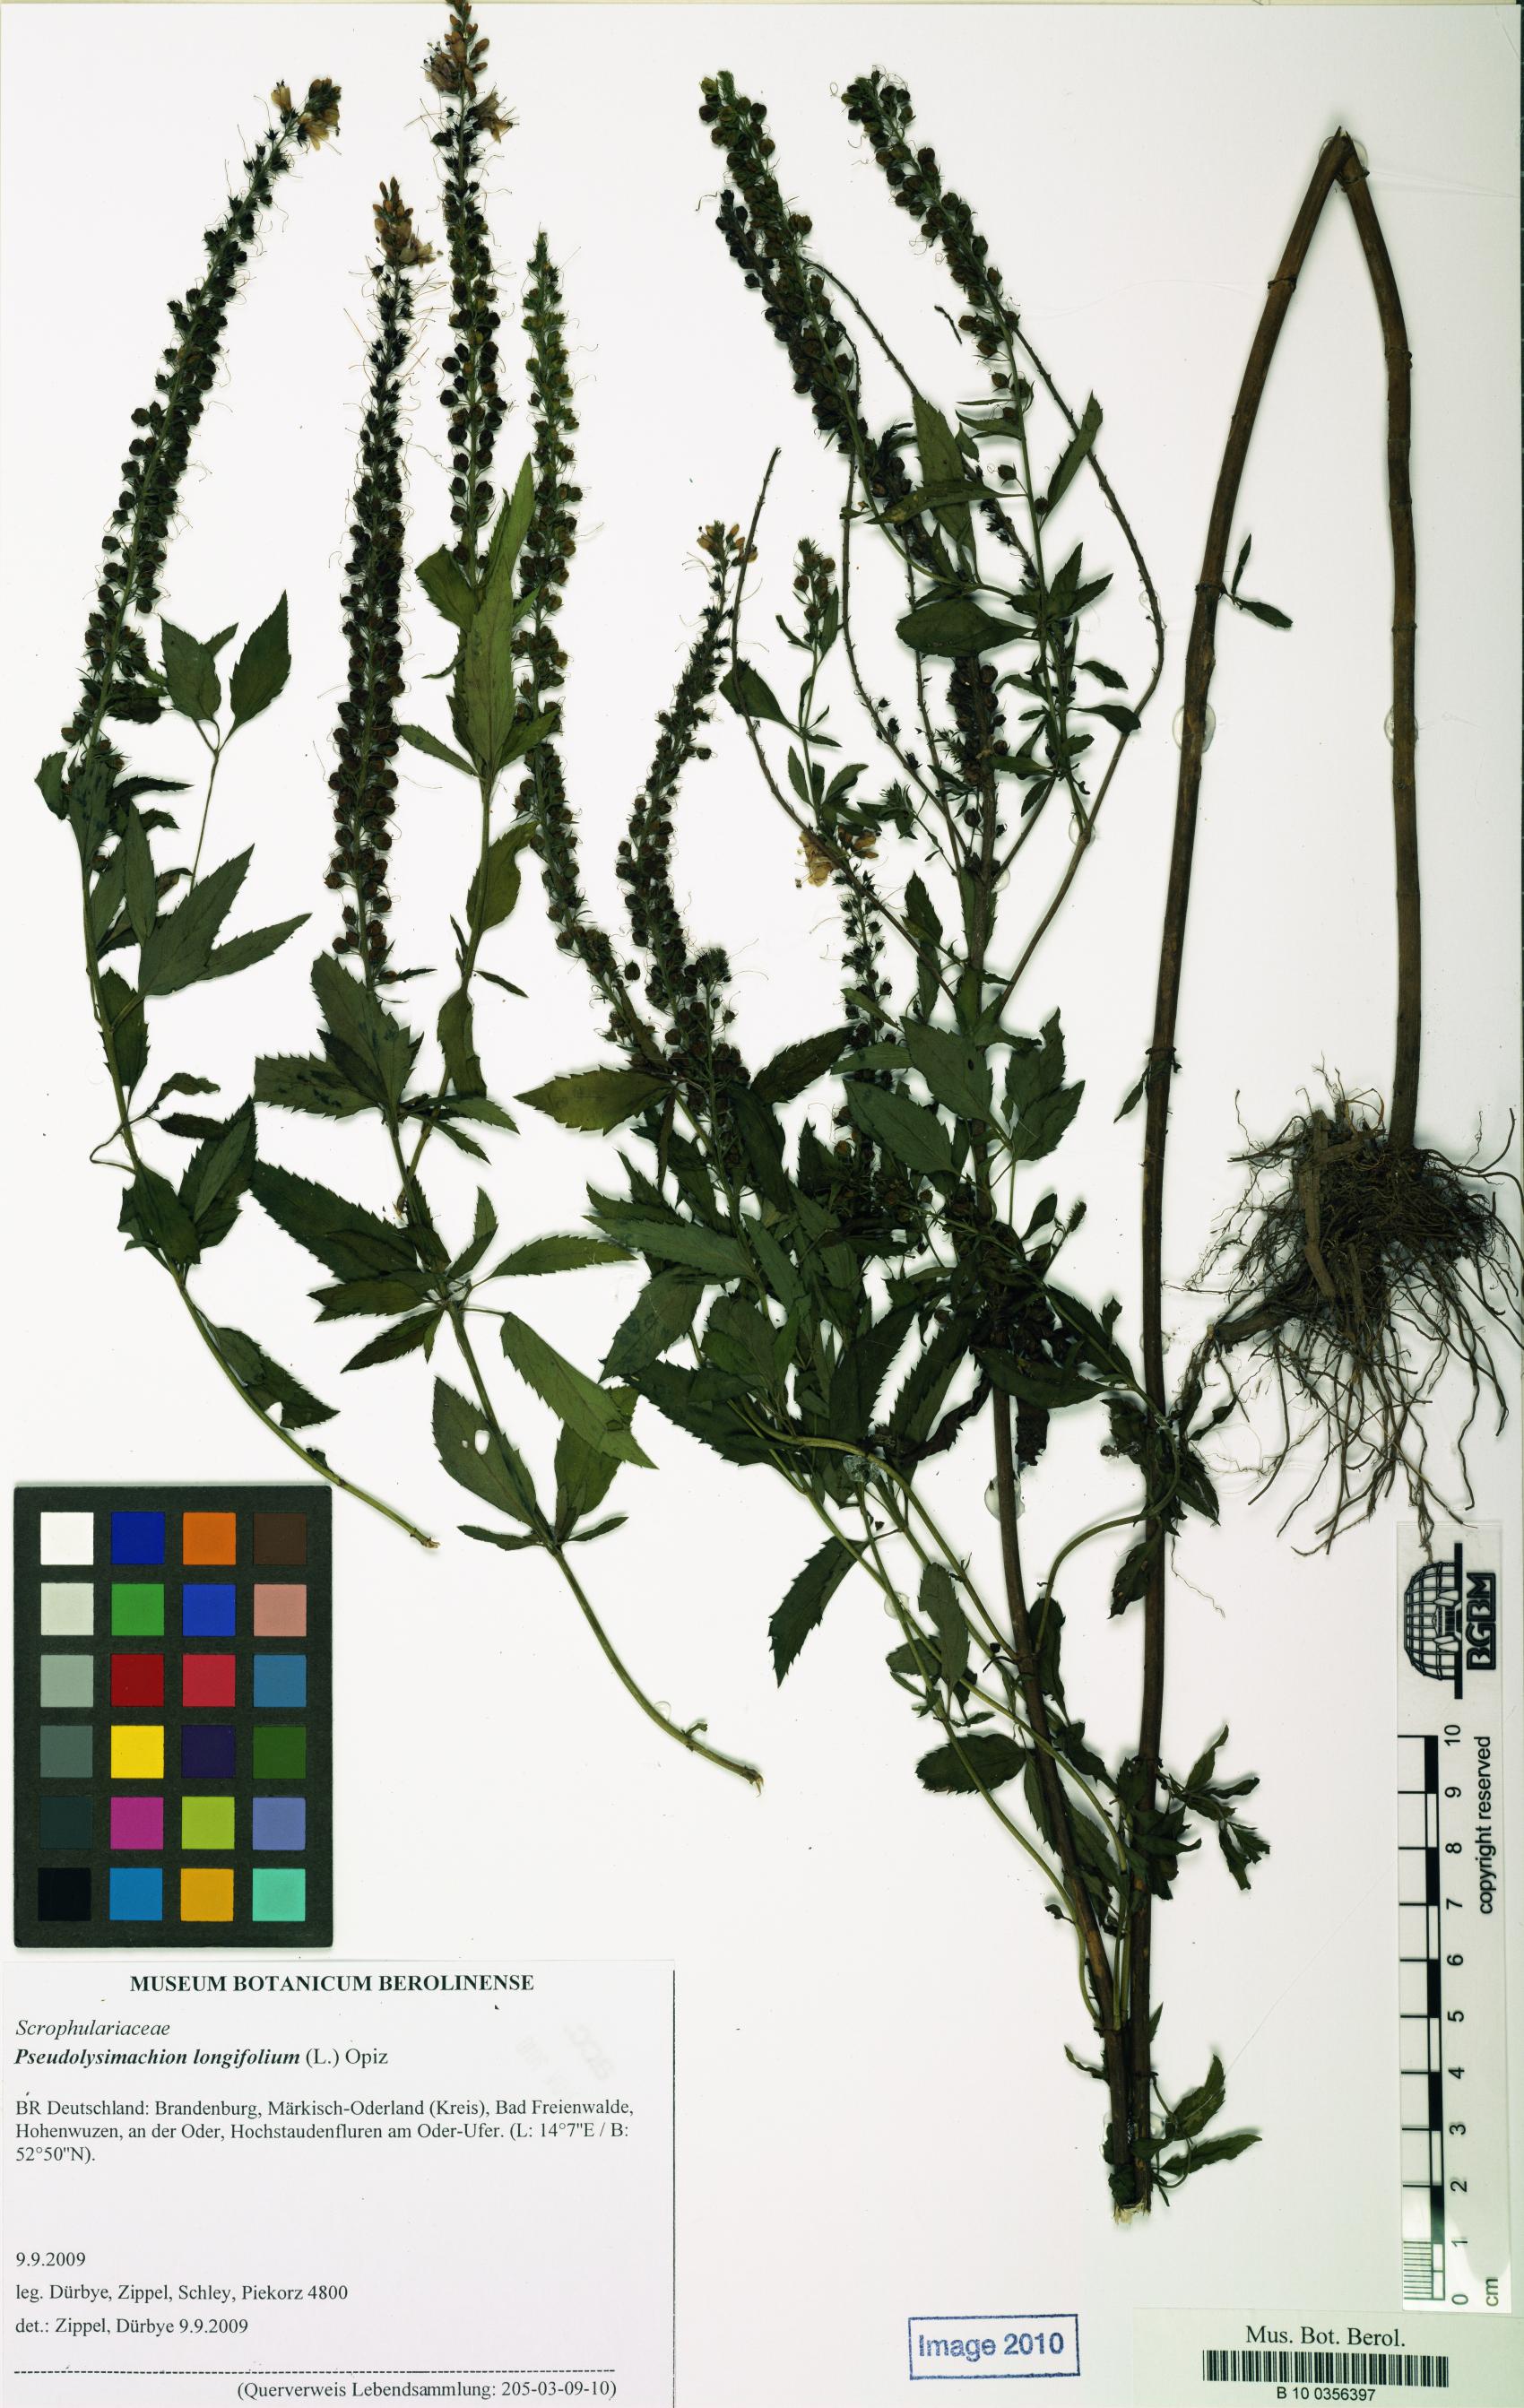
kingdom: Plantae
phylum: Tracheophyta
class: Magnoliopsida
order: Lamiales
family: Plantaginaceae
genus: Veronica
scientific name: Veronica longifolia
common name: Garden speedwell
